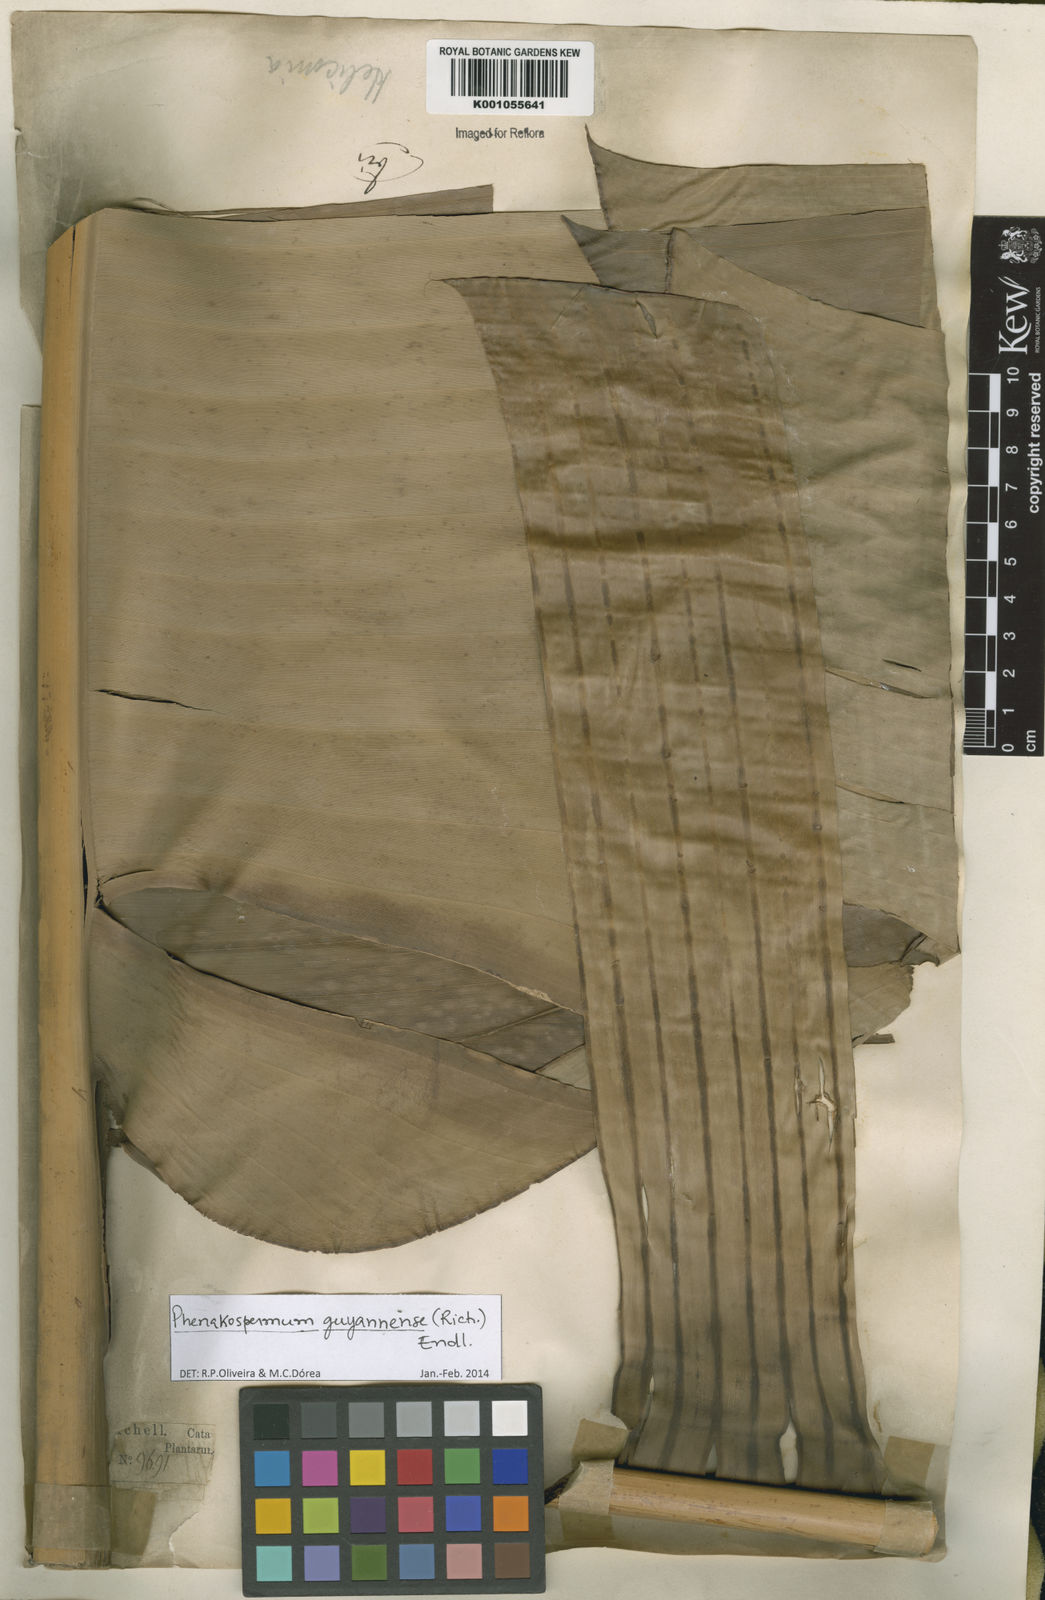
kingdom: Plantae
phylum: Tracheophyta
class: Liliopsida
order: Zingiberales
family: Strelitziaceae
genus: Phenakospermum
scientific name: Phenakospermum
